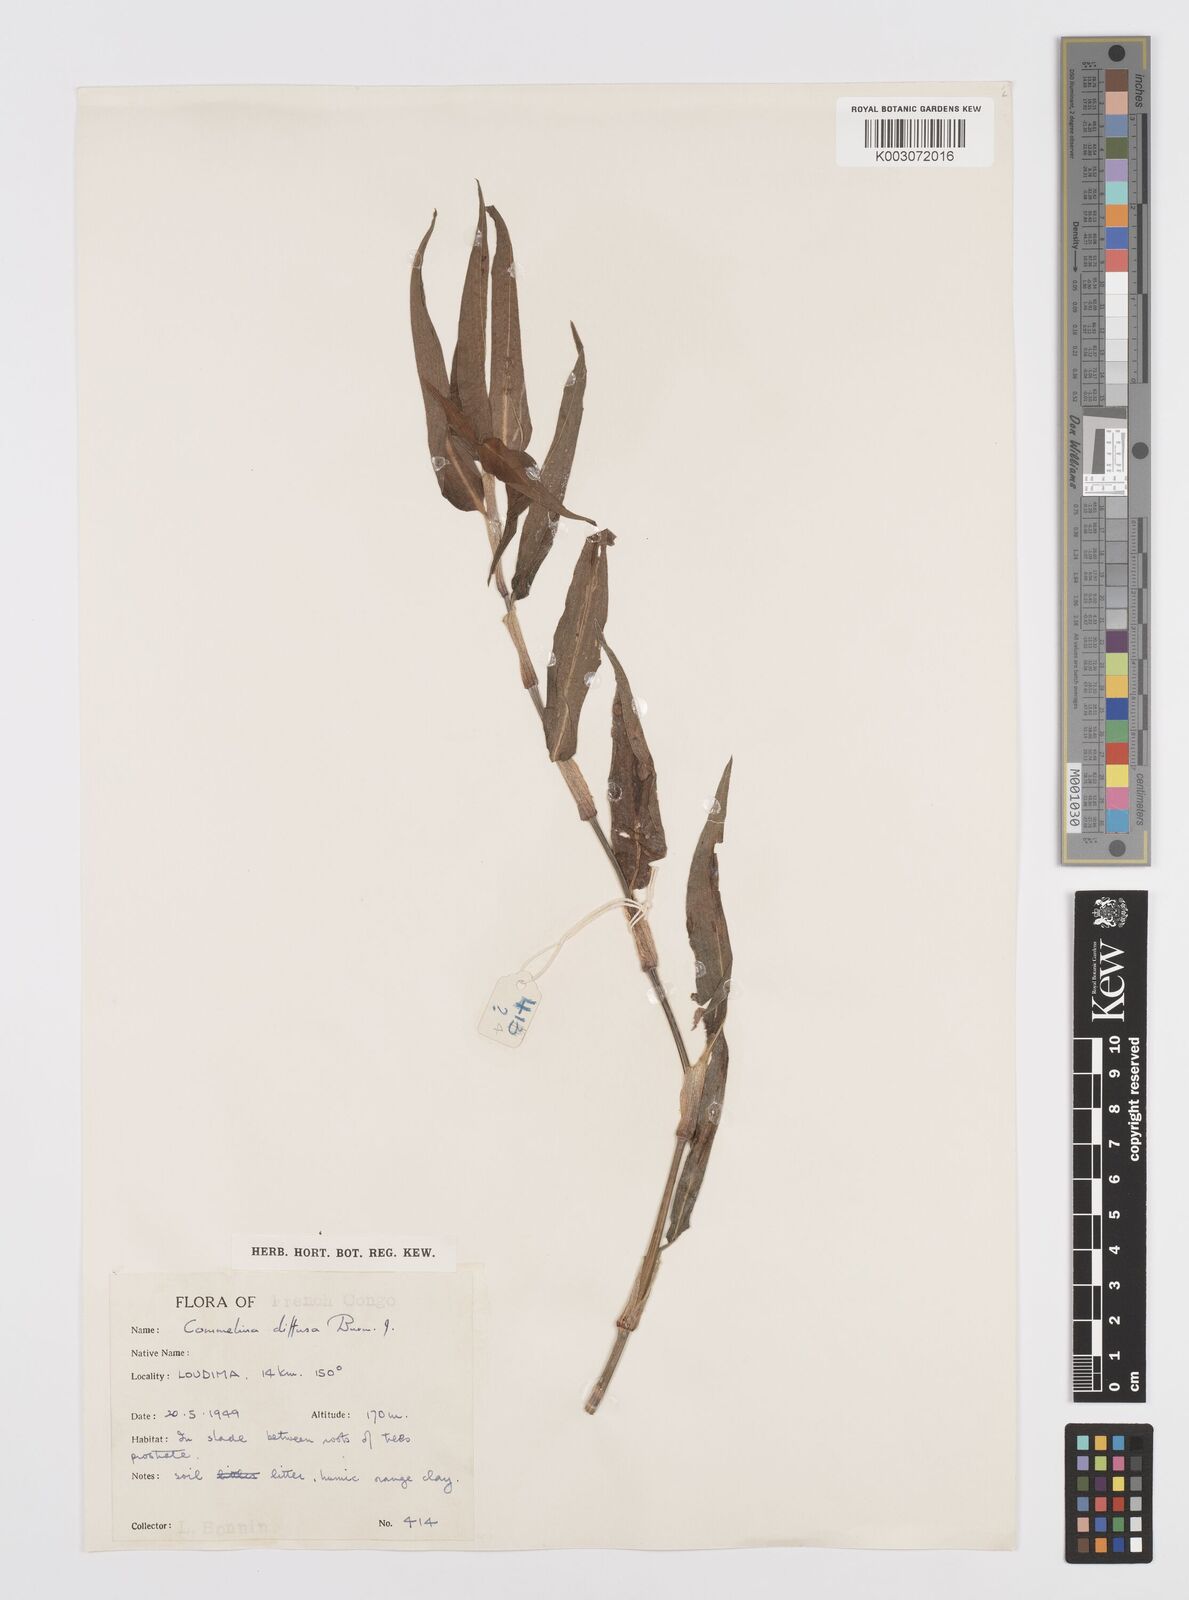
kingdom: Plantae
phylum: Tracheophyta
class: Liliopsida
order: Commelinales
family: Commelinaceae
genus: Commelina
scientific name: Commelina diffusa
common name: Climbing dayflower
